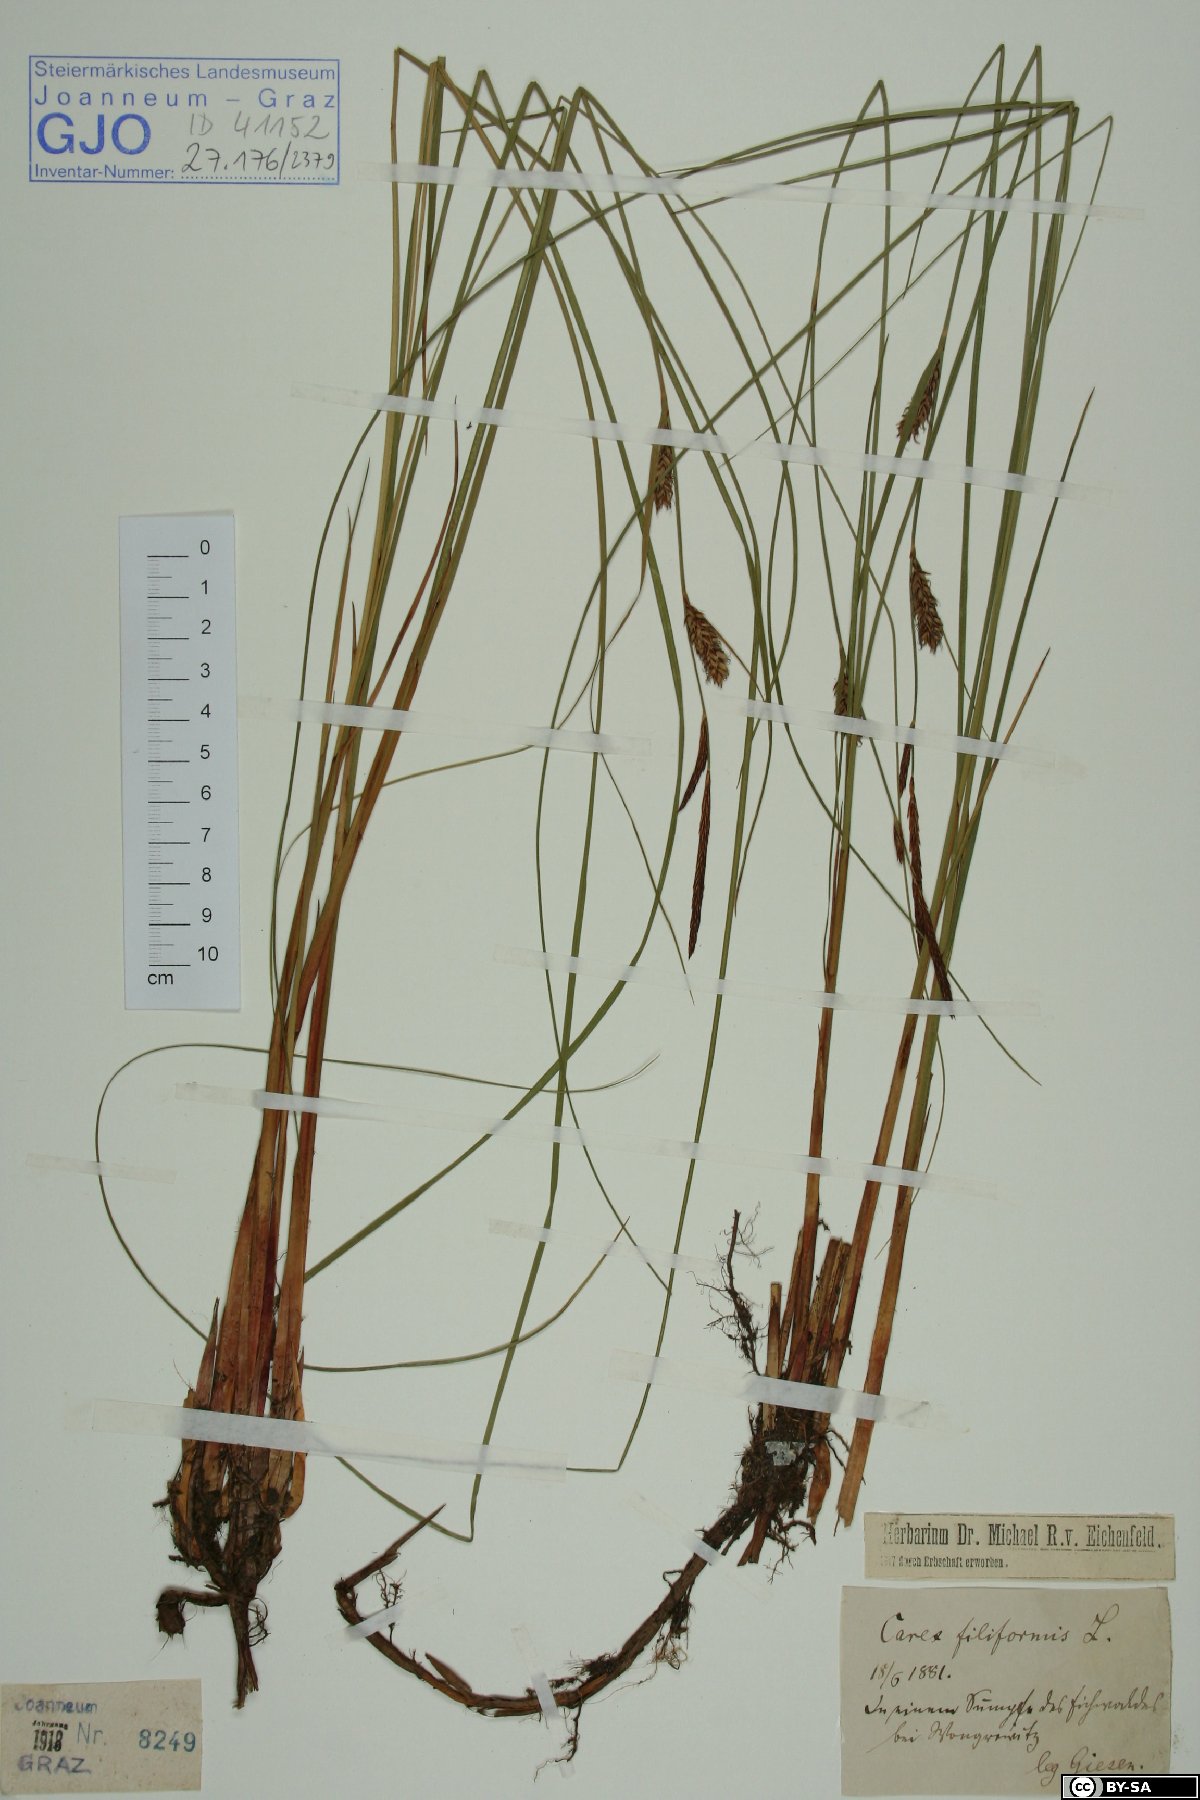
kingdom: Plantae
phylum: Tracheophyta
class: Liliopsida
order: Poales
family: Cyperaceae
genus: Carex
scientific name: Carex montana
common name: Soft-leaved sedge
